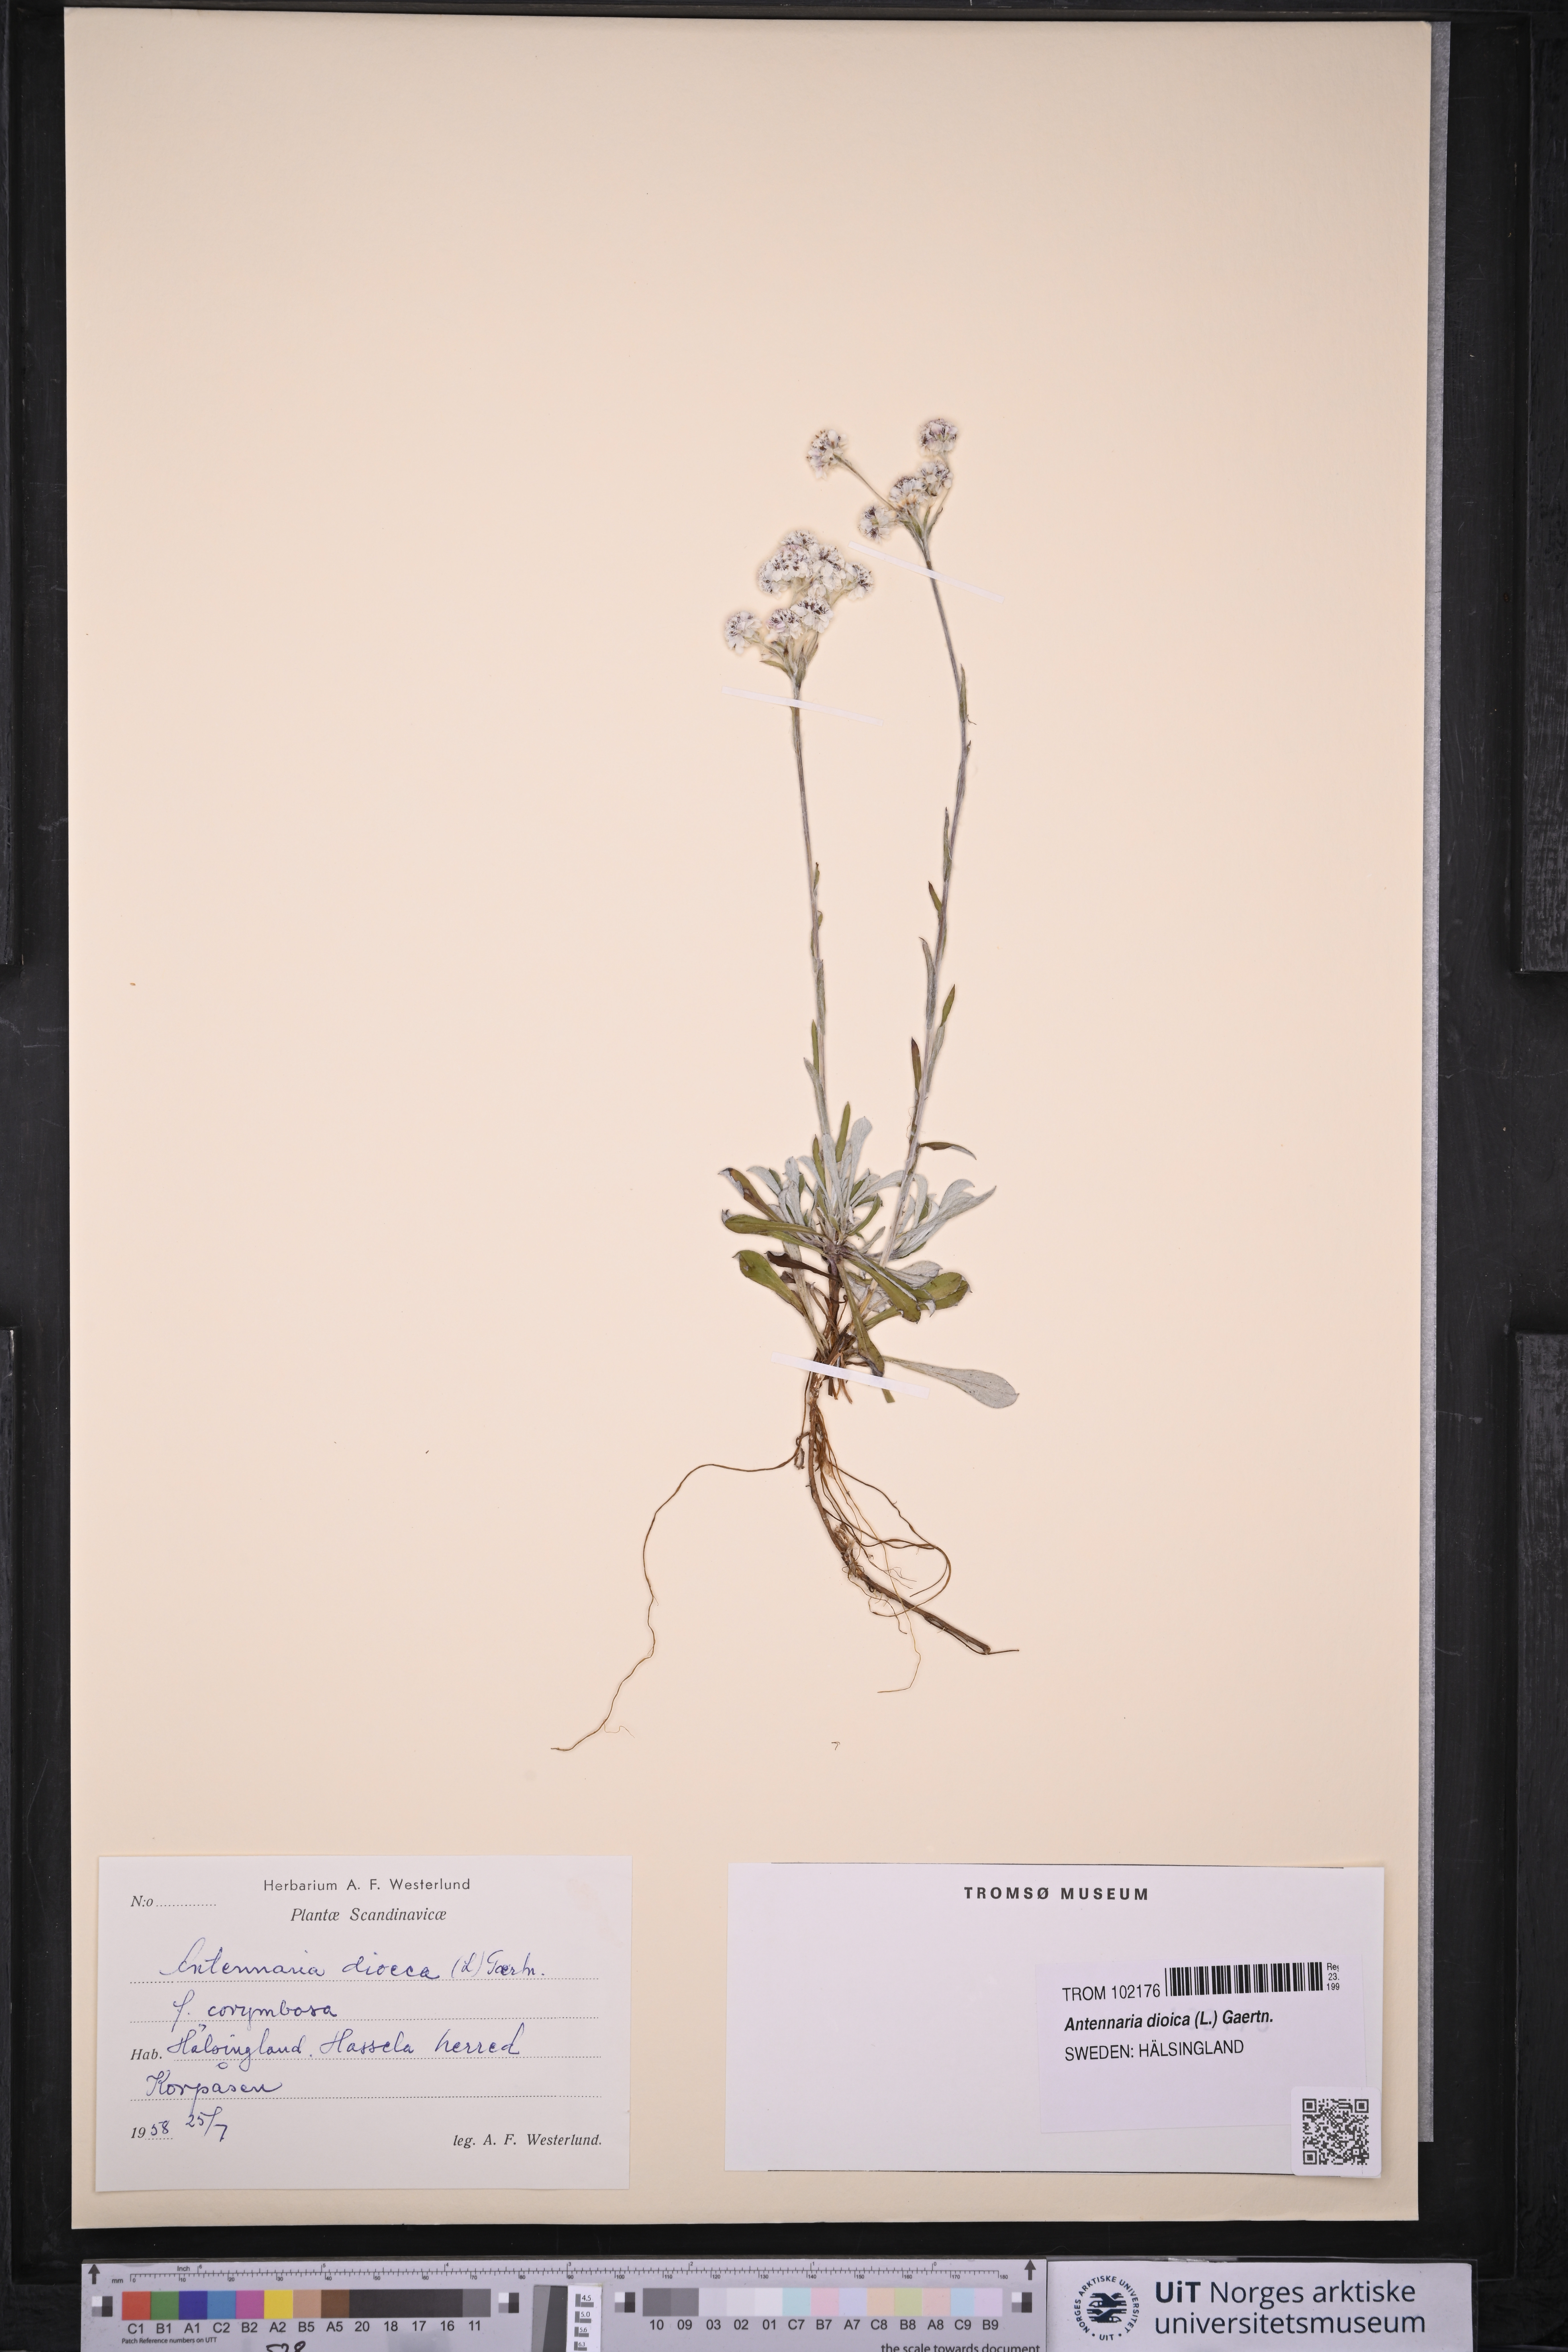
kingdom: Plantae
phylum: Tracheophyta
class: Magnoliopsida
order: Asterales
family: Asteraceae
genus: Antennaria
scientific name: Antennaria dioica
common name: Mountain everlasting
